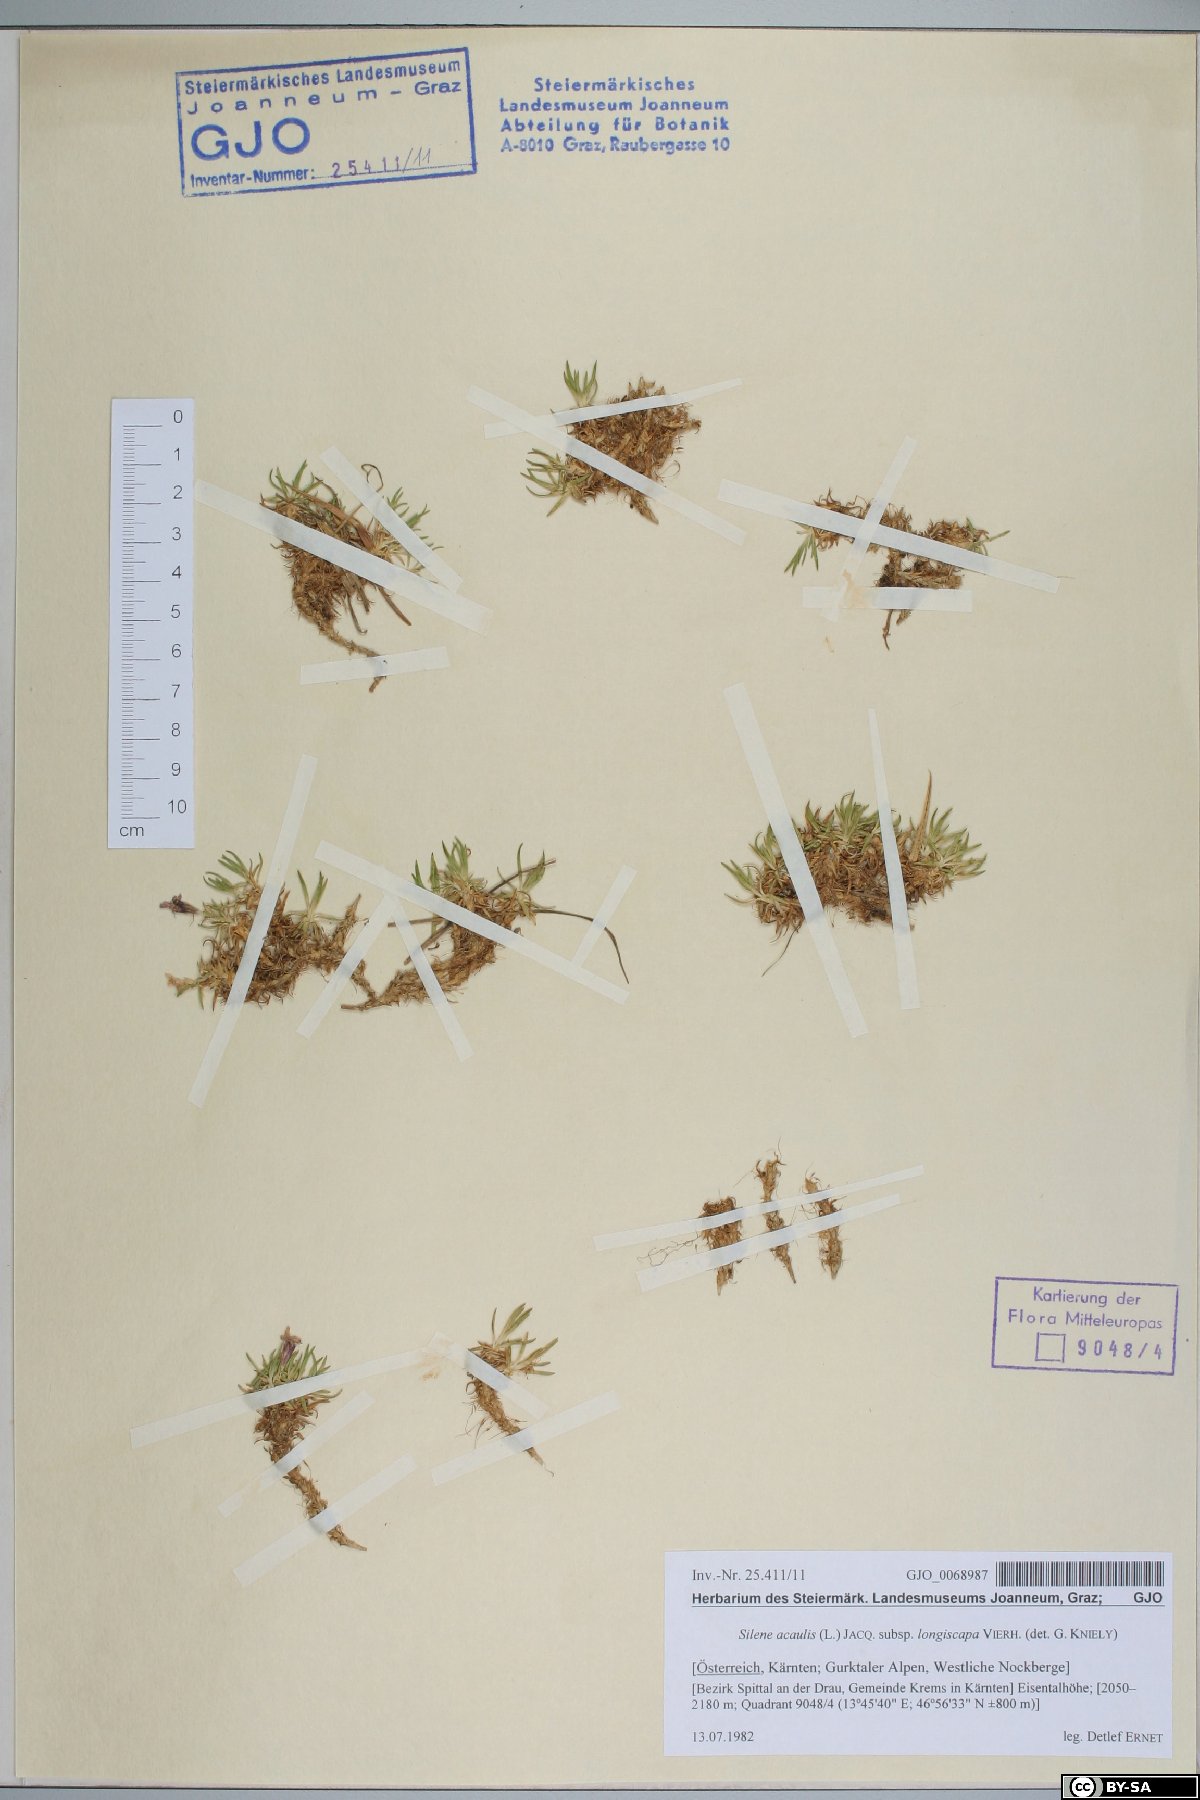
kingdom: Plantae
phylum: Tracheophyta
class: Magnoliopsida
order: Caryophyllales
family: Caryophyllaceae
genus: Silene
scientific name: Silene acaulis
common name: Moss campion
